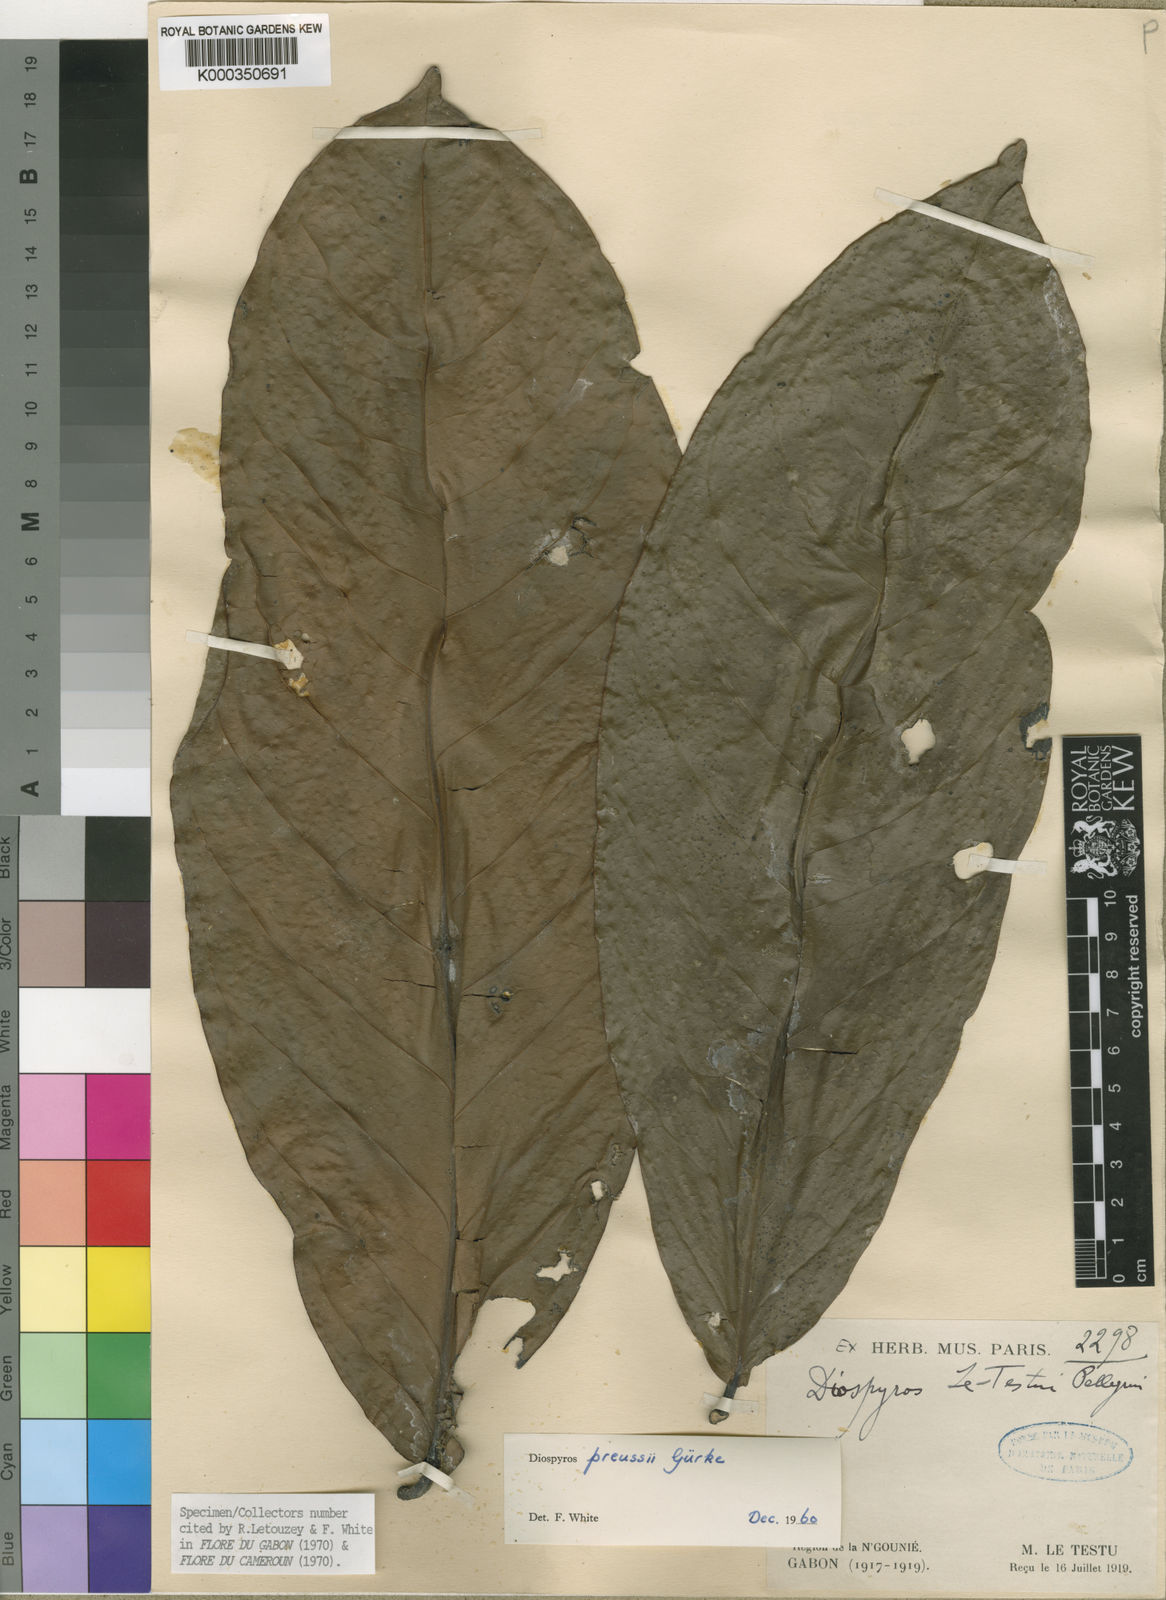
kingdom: Plantae
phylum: Tracheophyta
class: Magnoliopsida
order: Ericales
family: Ebenaceae
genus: Diospyros
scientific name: Diospyros
